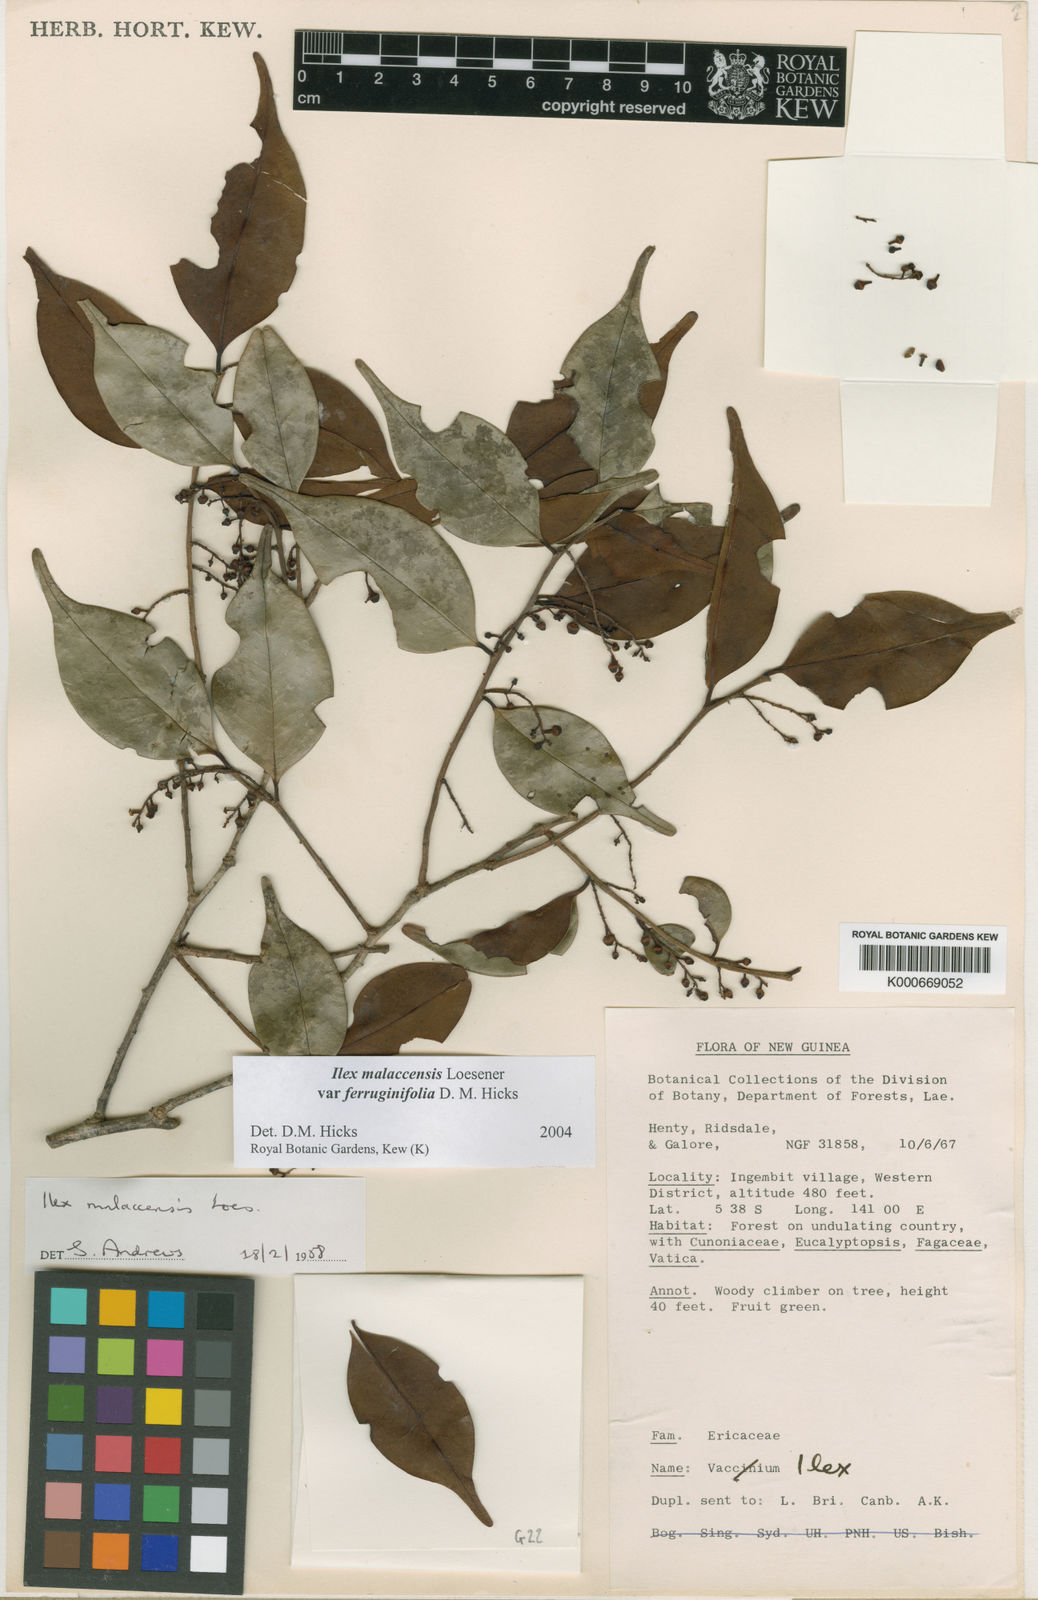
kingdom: Plantae
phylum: Tracheophyta
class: Magnoliopsida
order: Aquifoliales
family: Aquifoliaceae
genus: Ilex
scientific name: Ilex malaccensis
